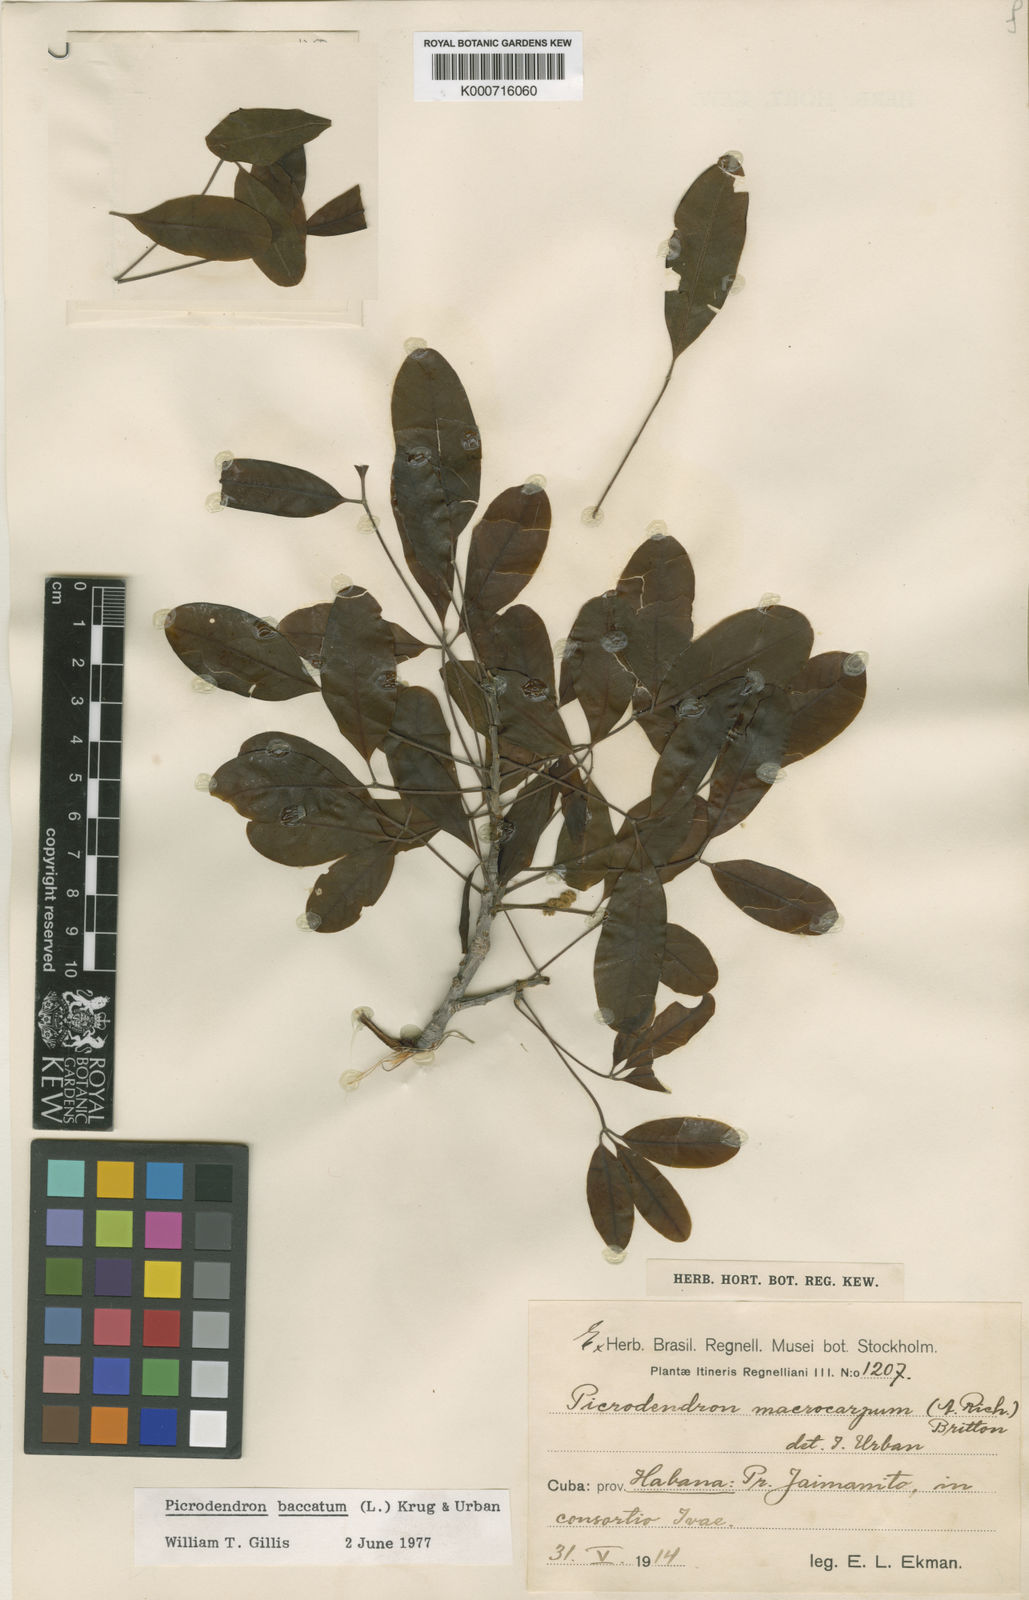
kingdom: Plantae
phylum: Tracheophyta
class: Magnoliopsida
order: Malpighiales
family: Picrodendraceae
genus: Picrodendron
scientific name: Picrodendron baccatum
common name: Jamaica-walnut
